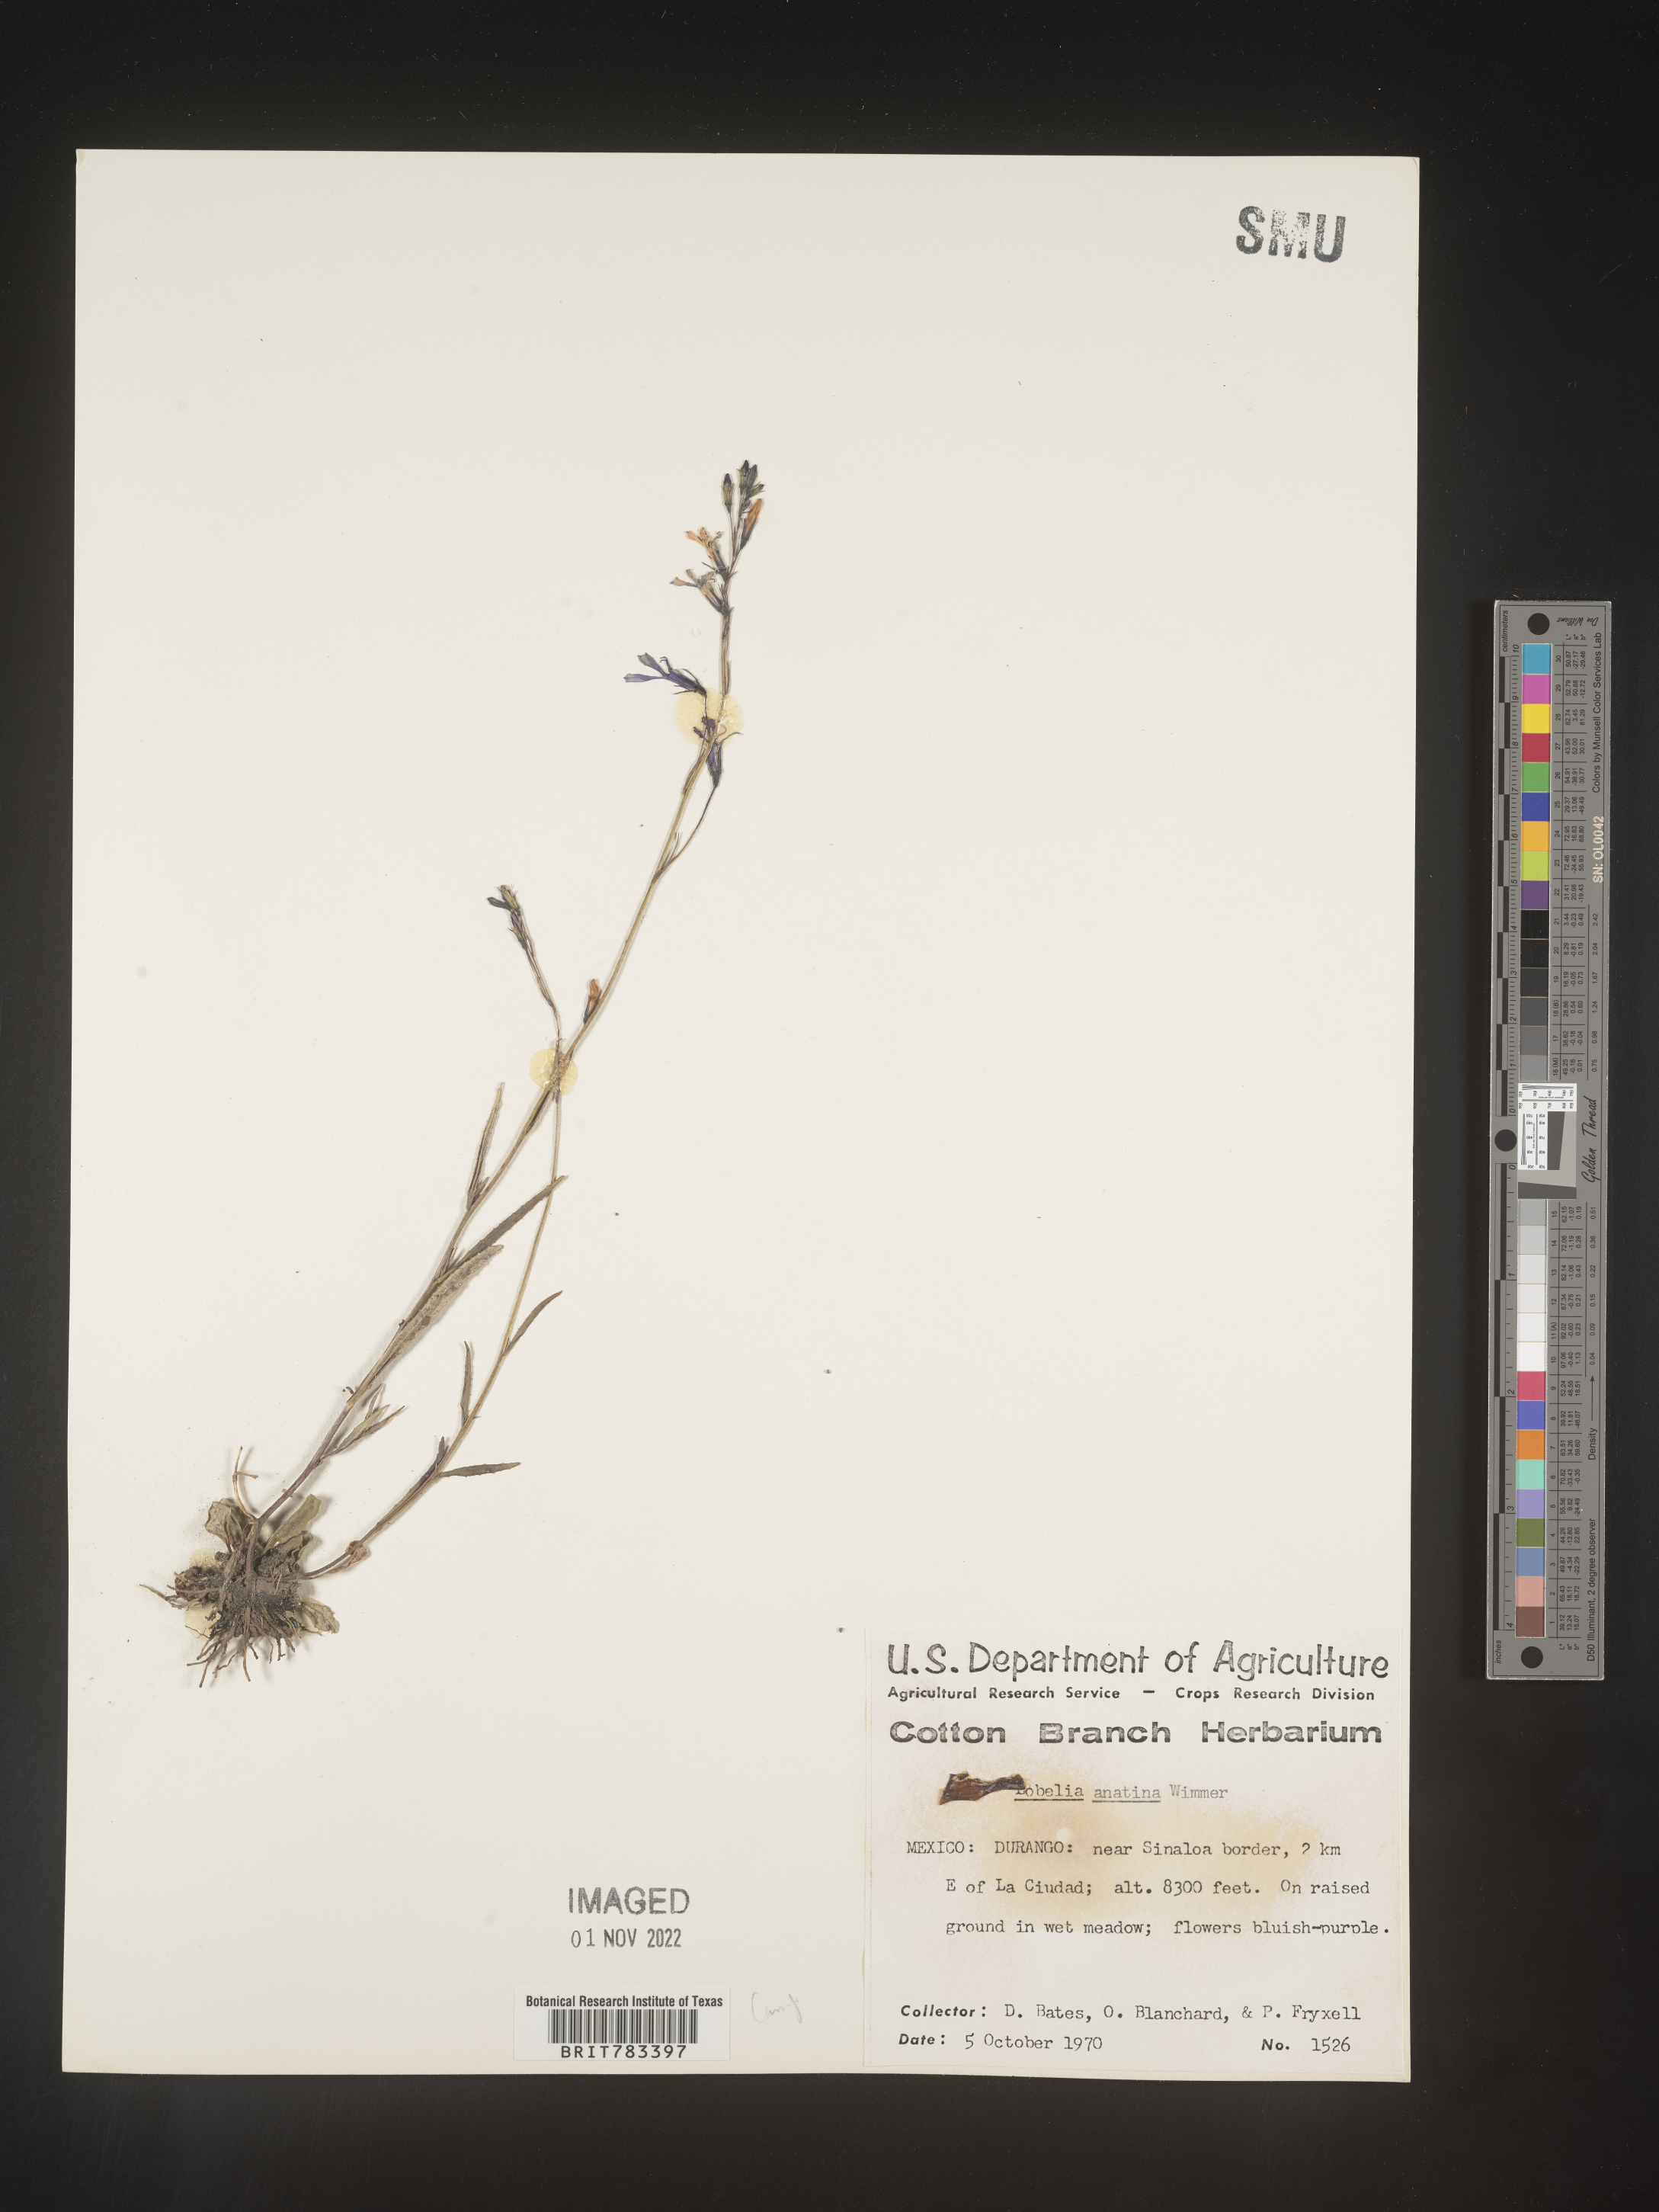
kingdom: Plantae
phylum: Tracheophyta
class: Magnoliopsida
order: Asterales
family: Campanulaceae
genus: Lobelia
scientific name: Lobelia
